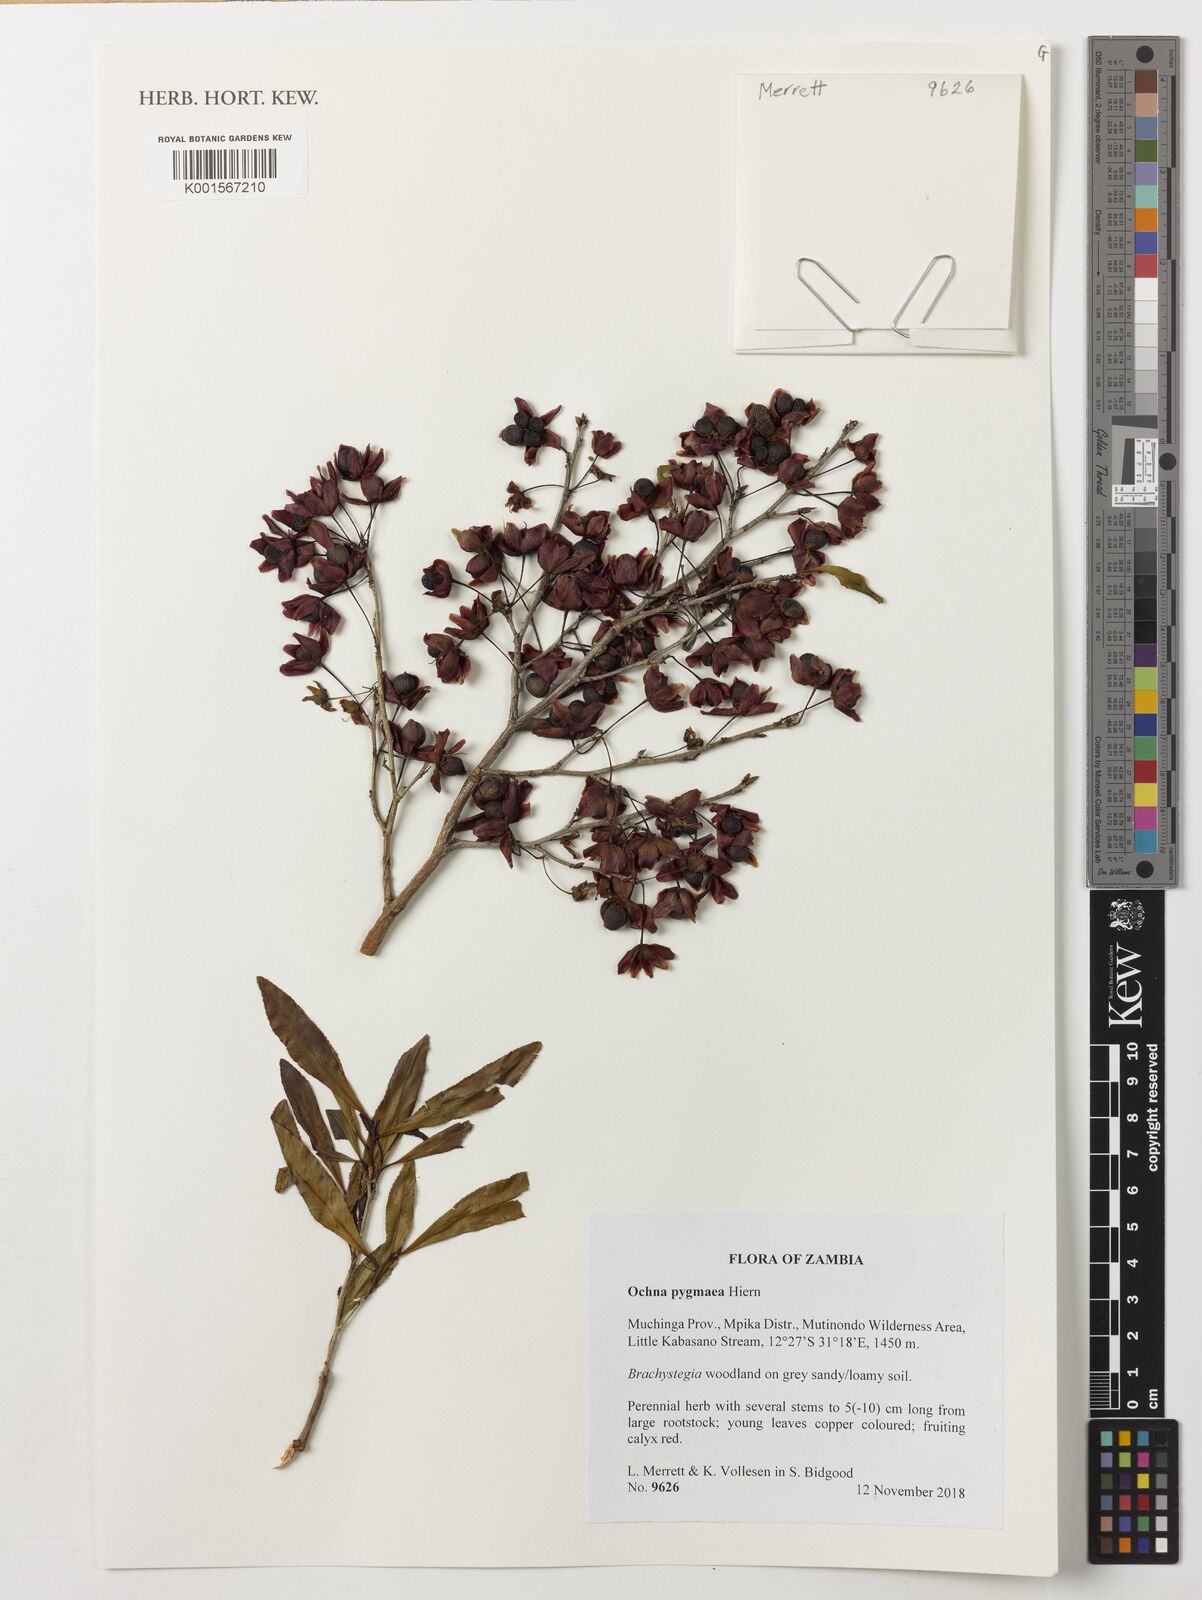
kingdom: Plantae
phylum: Tracheophyta
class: Magnoliopsida
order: Malpighiales
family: Ochnaceae
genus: Ochna
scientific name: Ochna pygmaea
